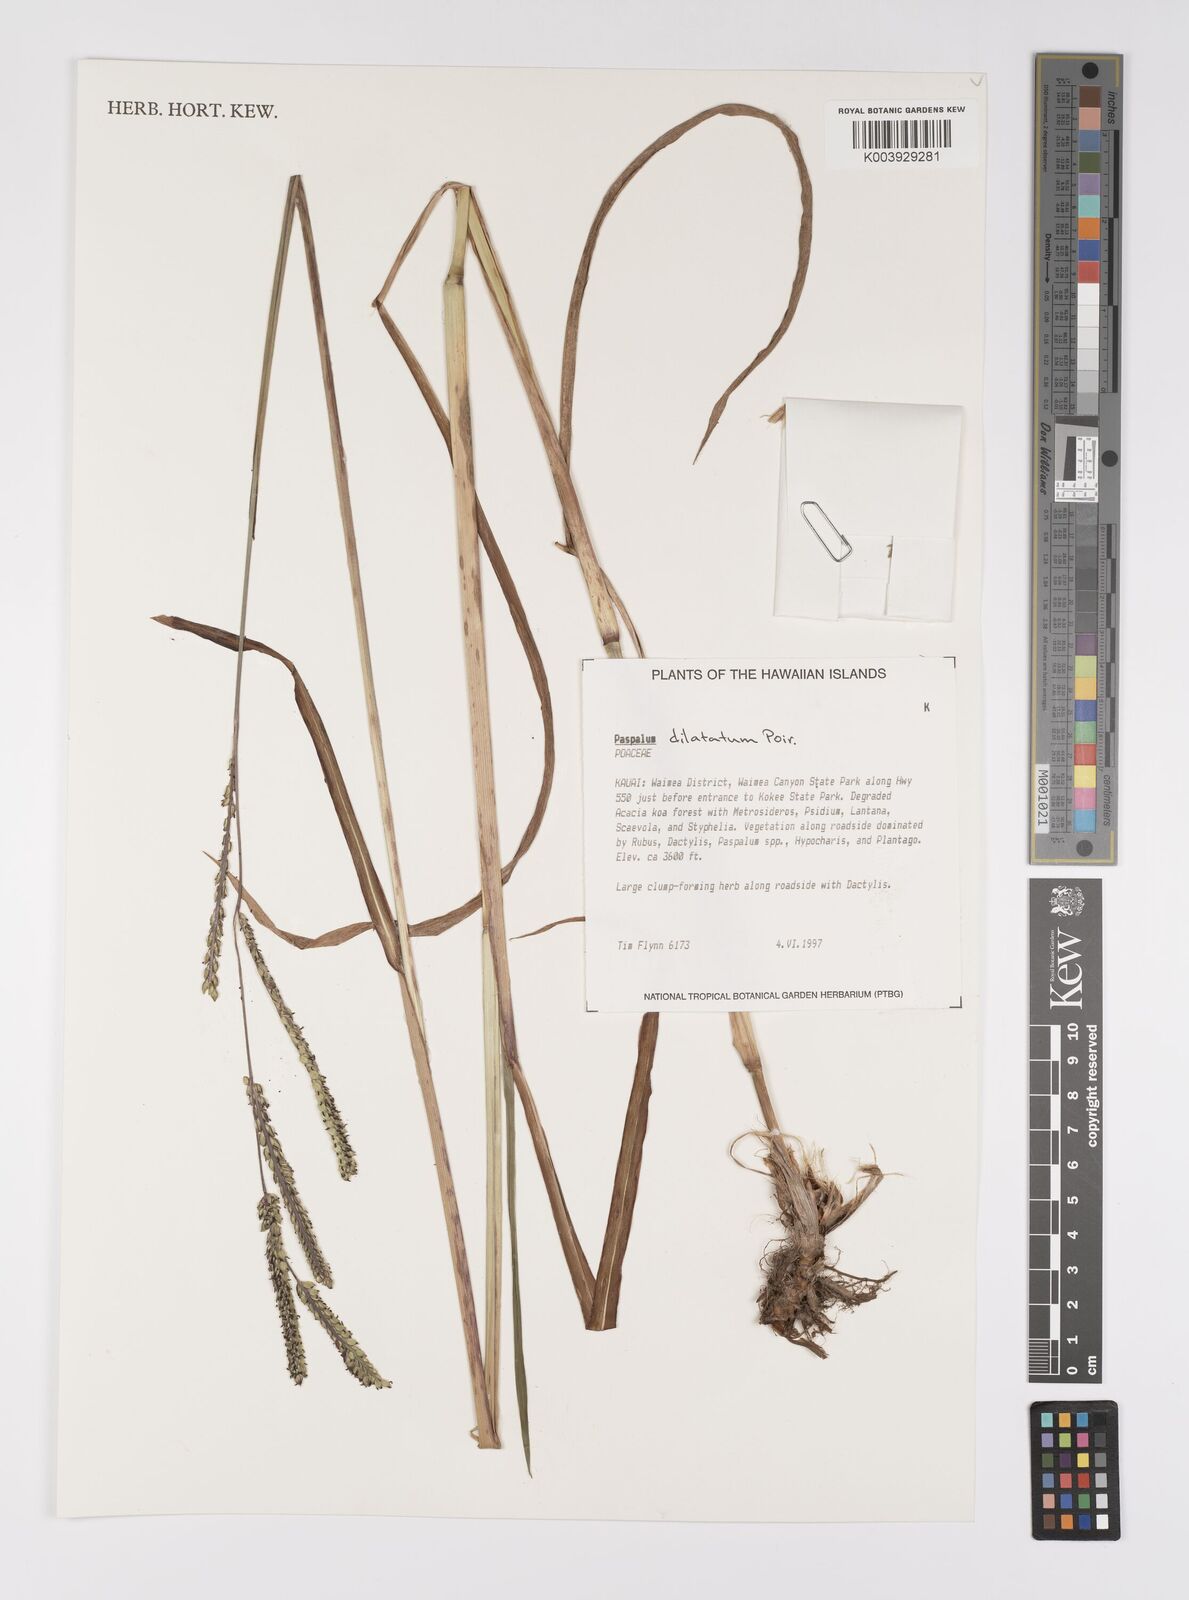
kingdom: Plantae
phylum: Tracheophyta
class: Liliopsida
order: Poales
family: Poaceae
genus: Paspalum
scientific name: Paspalum dilatatum
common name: Dallisgrass
